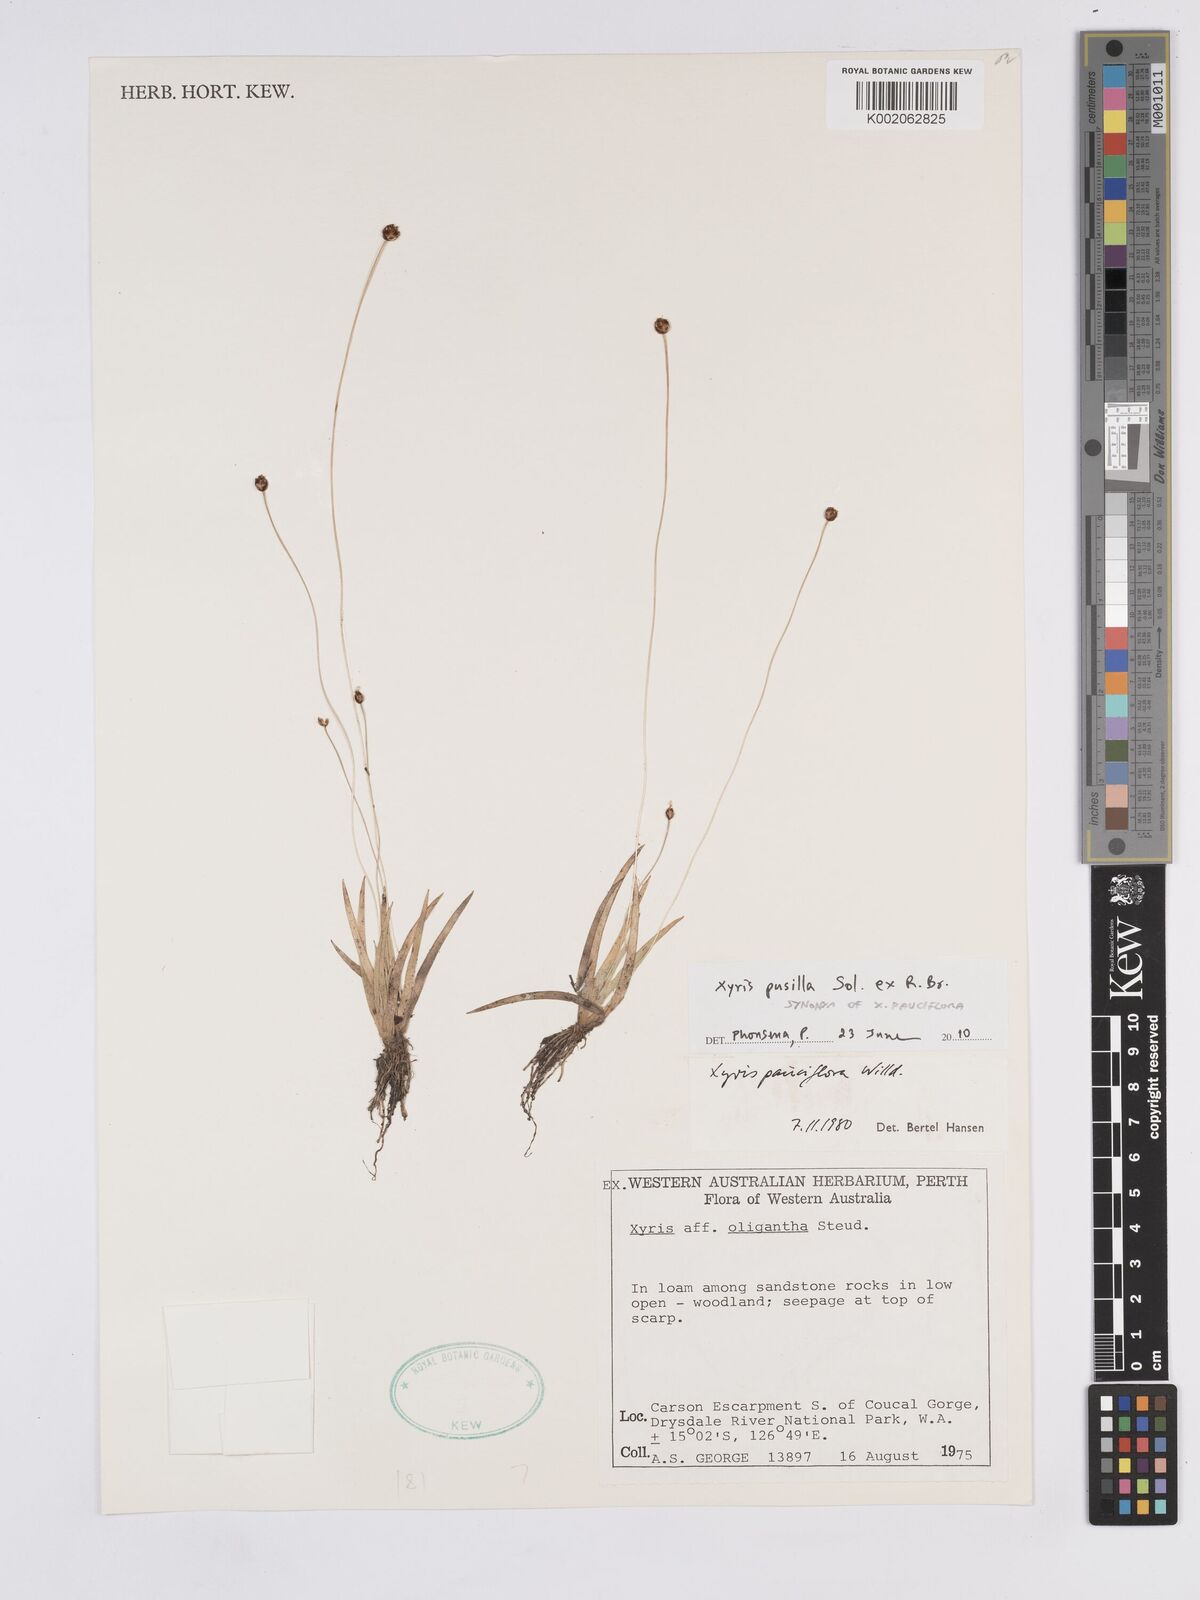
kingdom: Plantae
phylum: Tracheophyta
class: Liliopsida
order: Poales
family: Xyridaceae
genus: Xyris
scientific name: Xyris pauciflora
